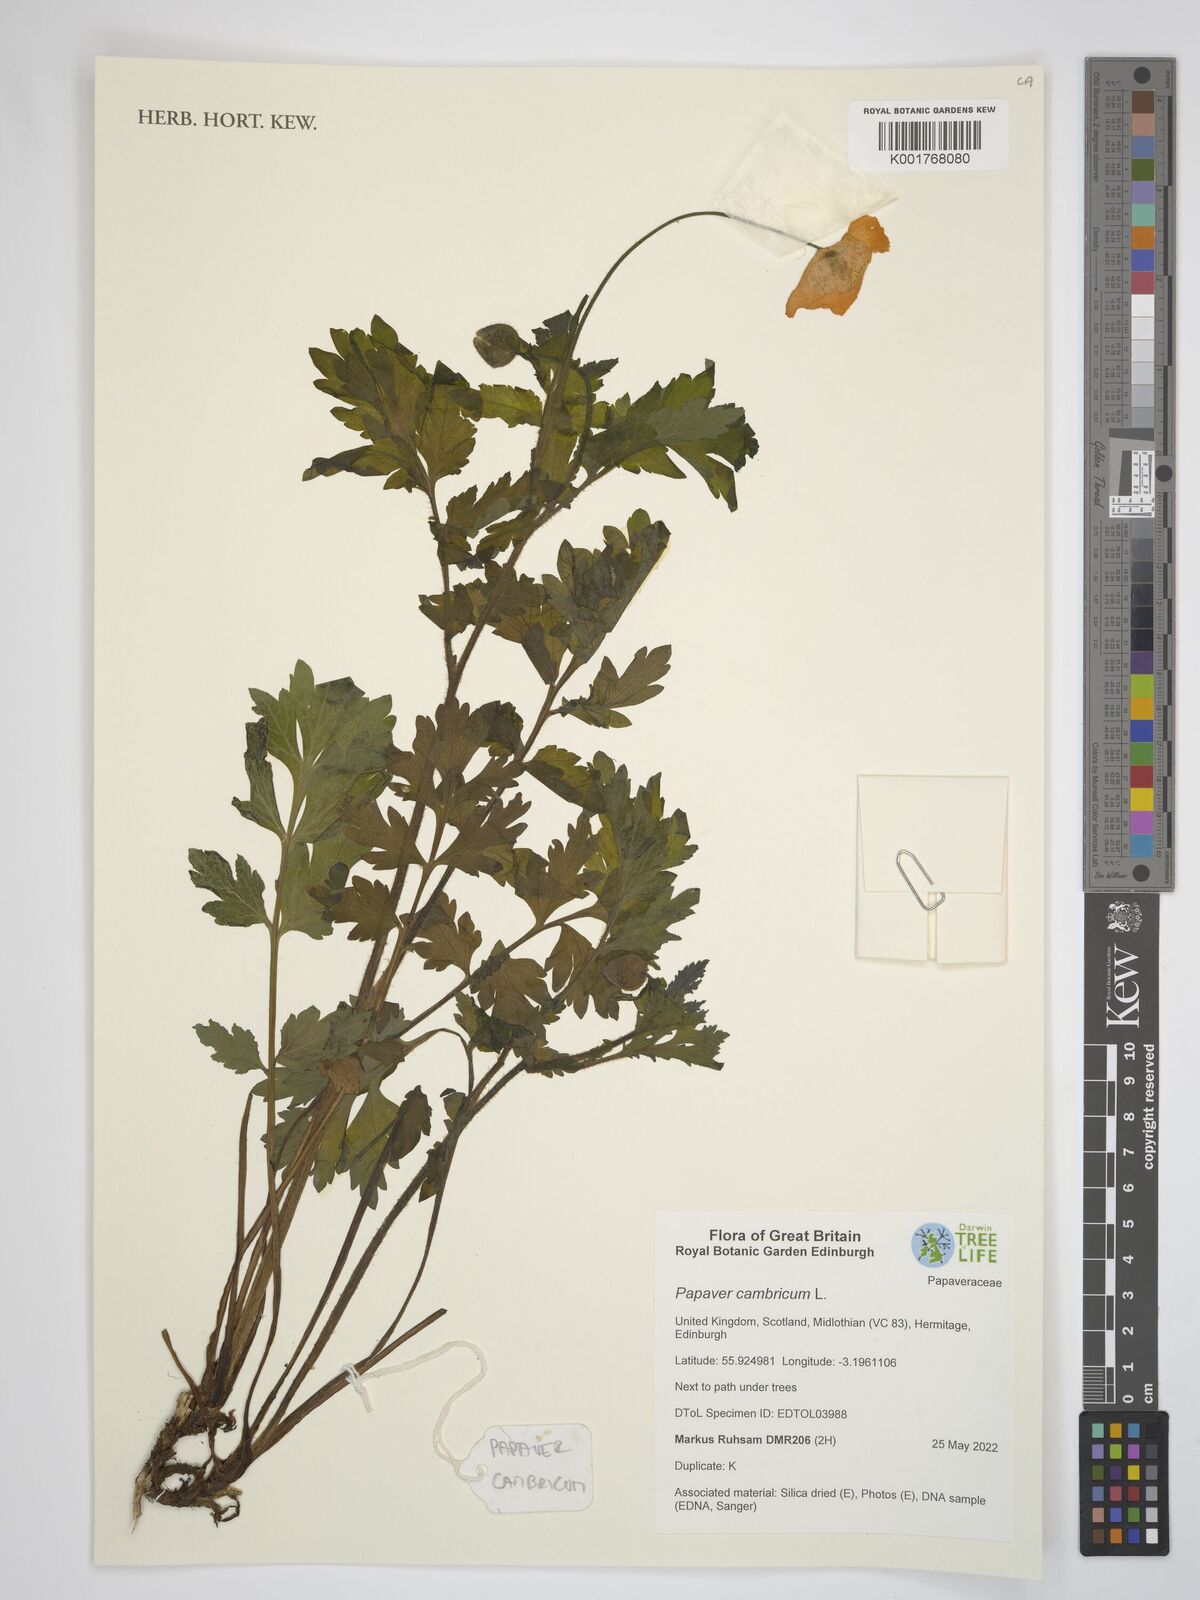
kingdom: Plantae
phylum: Tracheophyta
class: Magnoliopsida
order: Ranunculales
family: Papaveraceae
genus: Papaver
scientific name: Papaver cambricum
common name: Poppy
